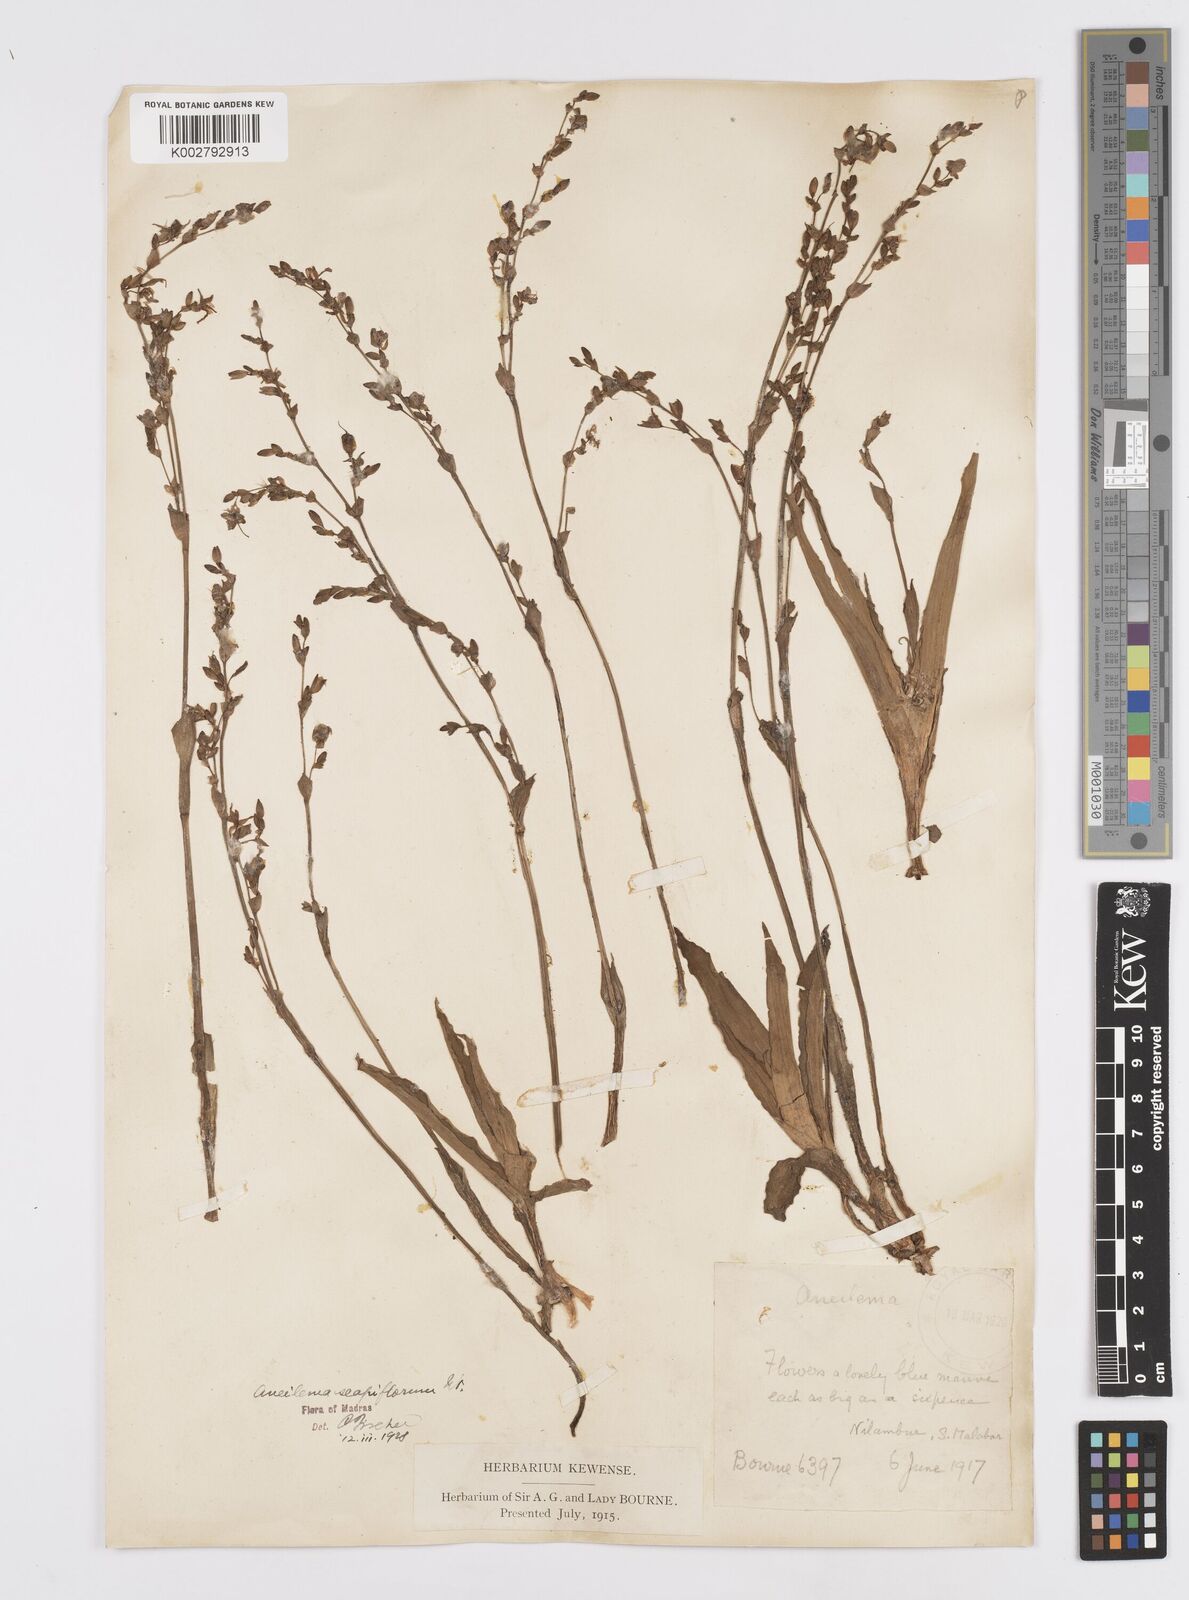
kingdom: Plantae
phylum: Tracheophyta
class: Liliopsida
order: Commelinales
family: Commelinaceae
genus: Murdannia
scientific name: Murdannia edulis
